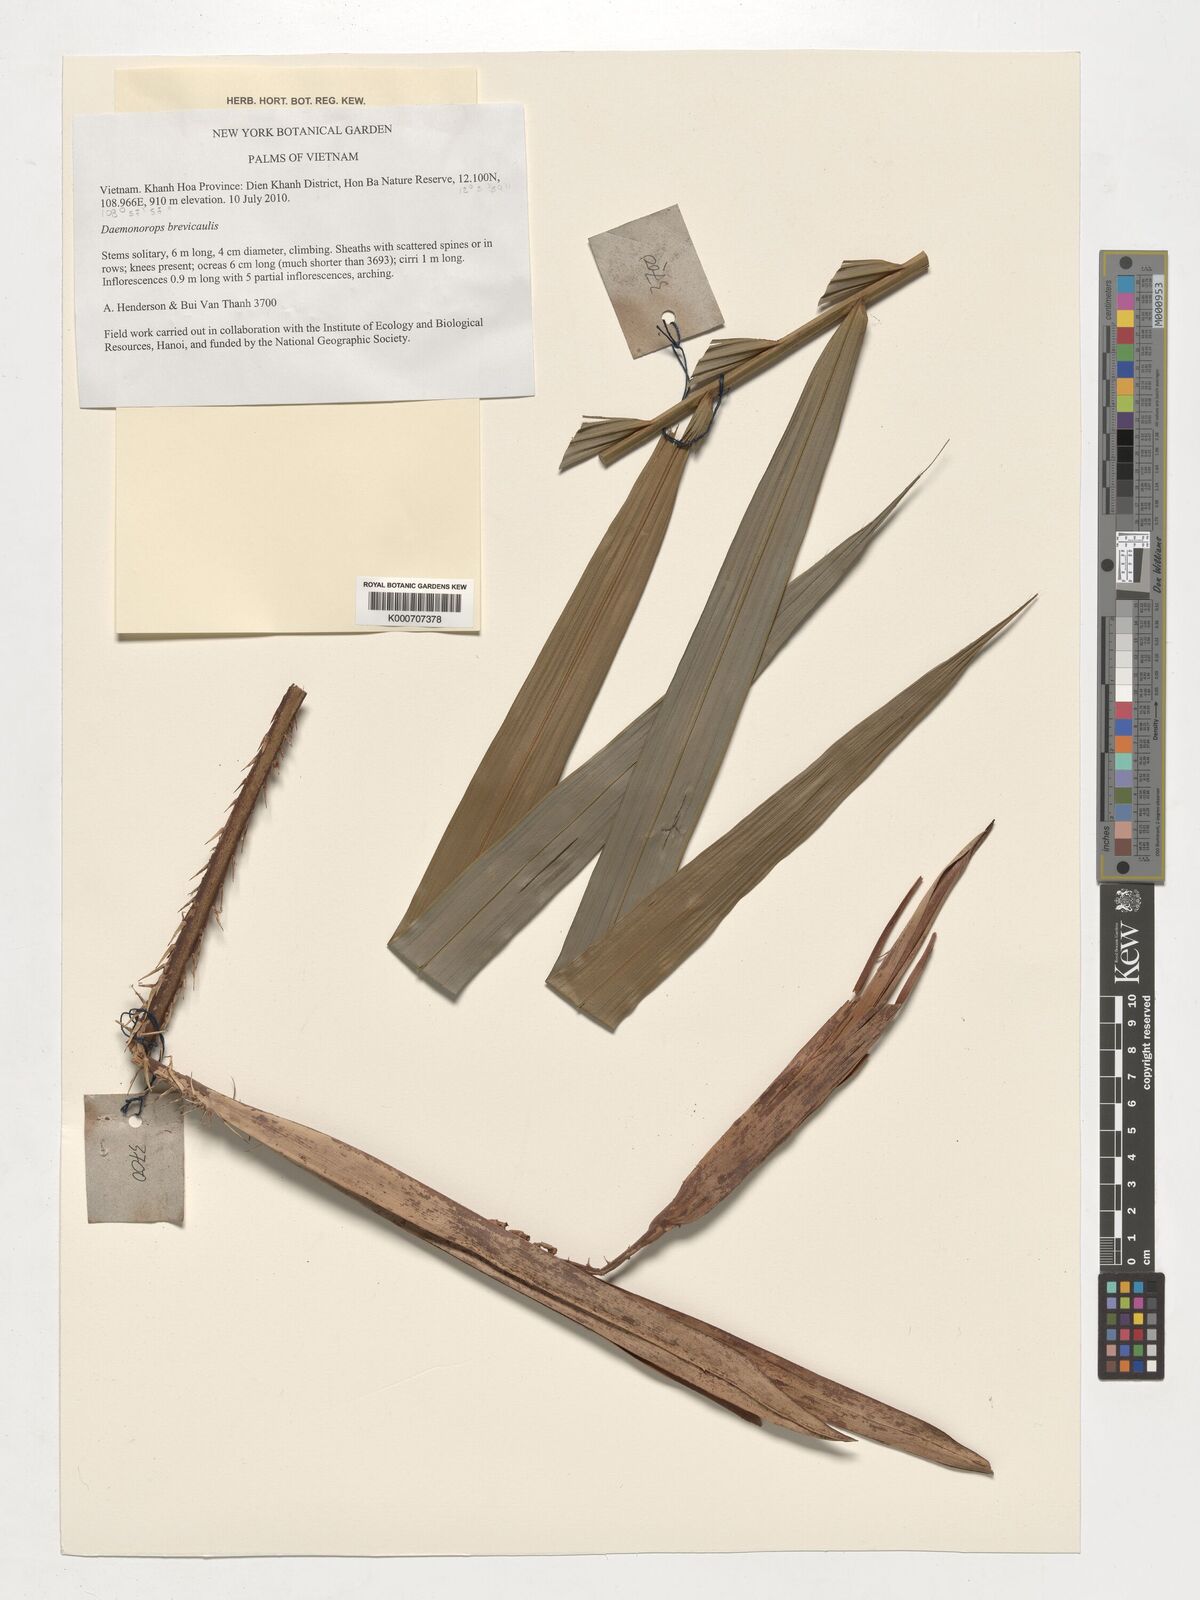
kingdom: Plantae
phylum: Tracheophyta
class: Liliopsida
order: Arecales
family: Arecaceae
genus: Calamus
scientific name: Calamus brevicaulis
